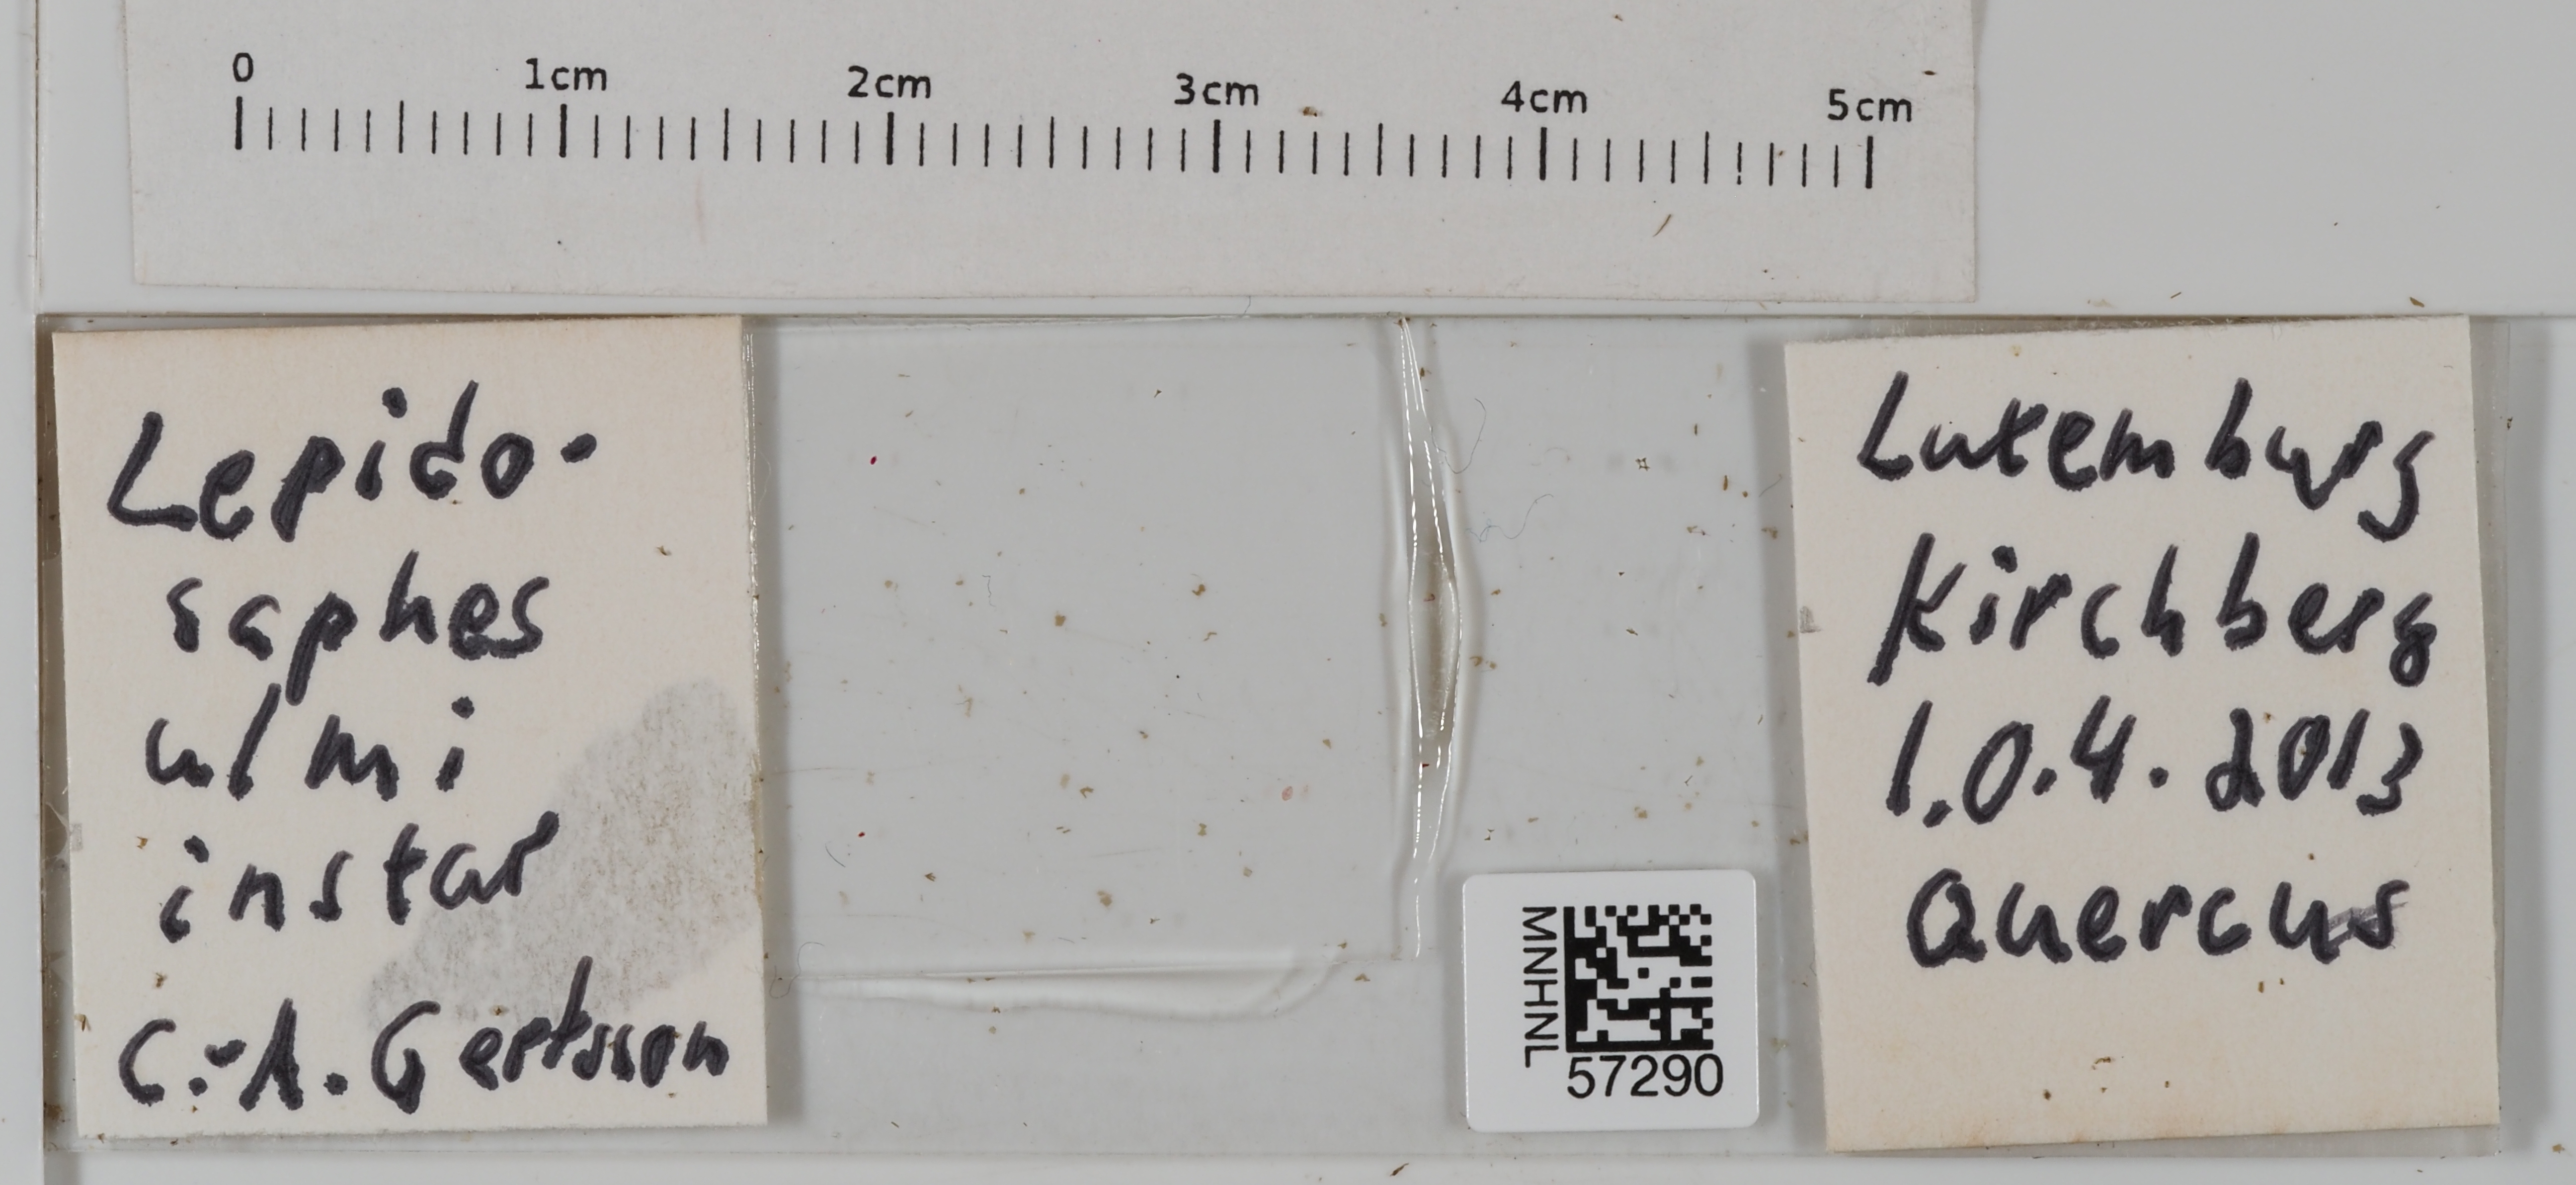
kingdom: Animalia
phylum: Arthropoda
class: Insecta
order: Hemiptera
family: Diaspididae
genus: Lepidosaphes
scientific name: Lepidosaphes ulmi
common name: Oystershell scale
